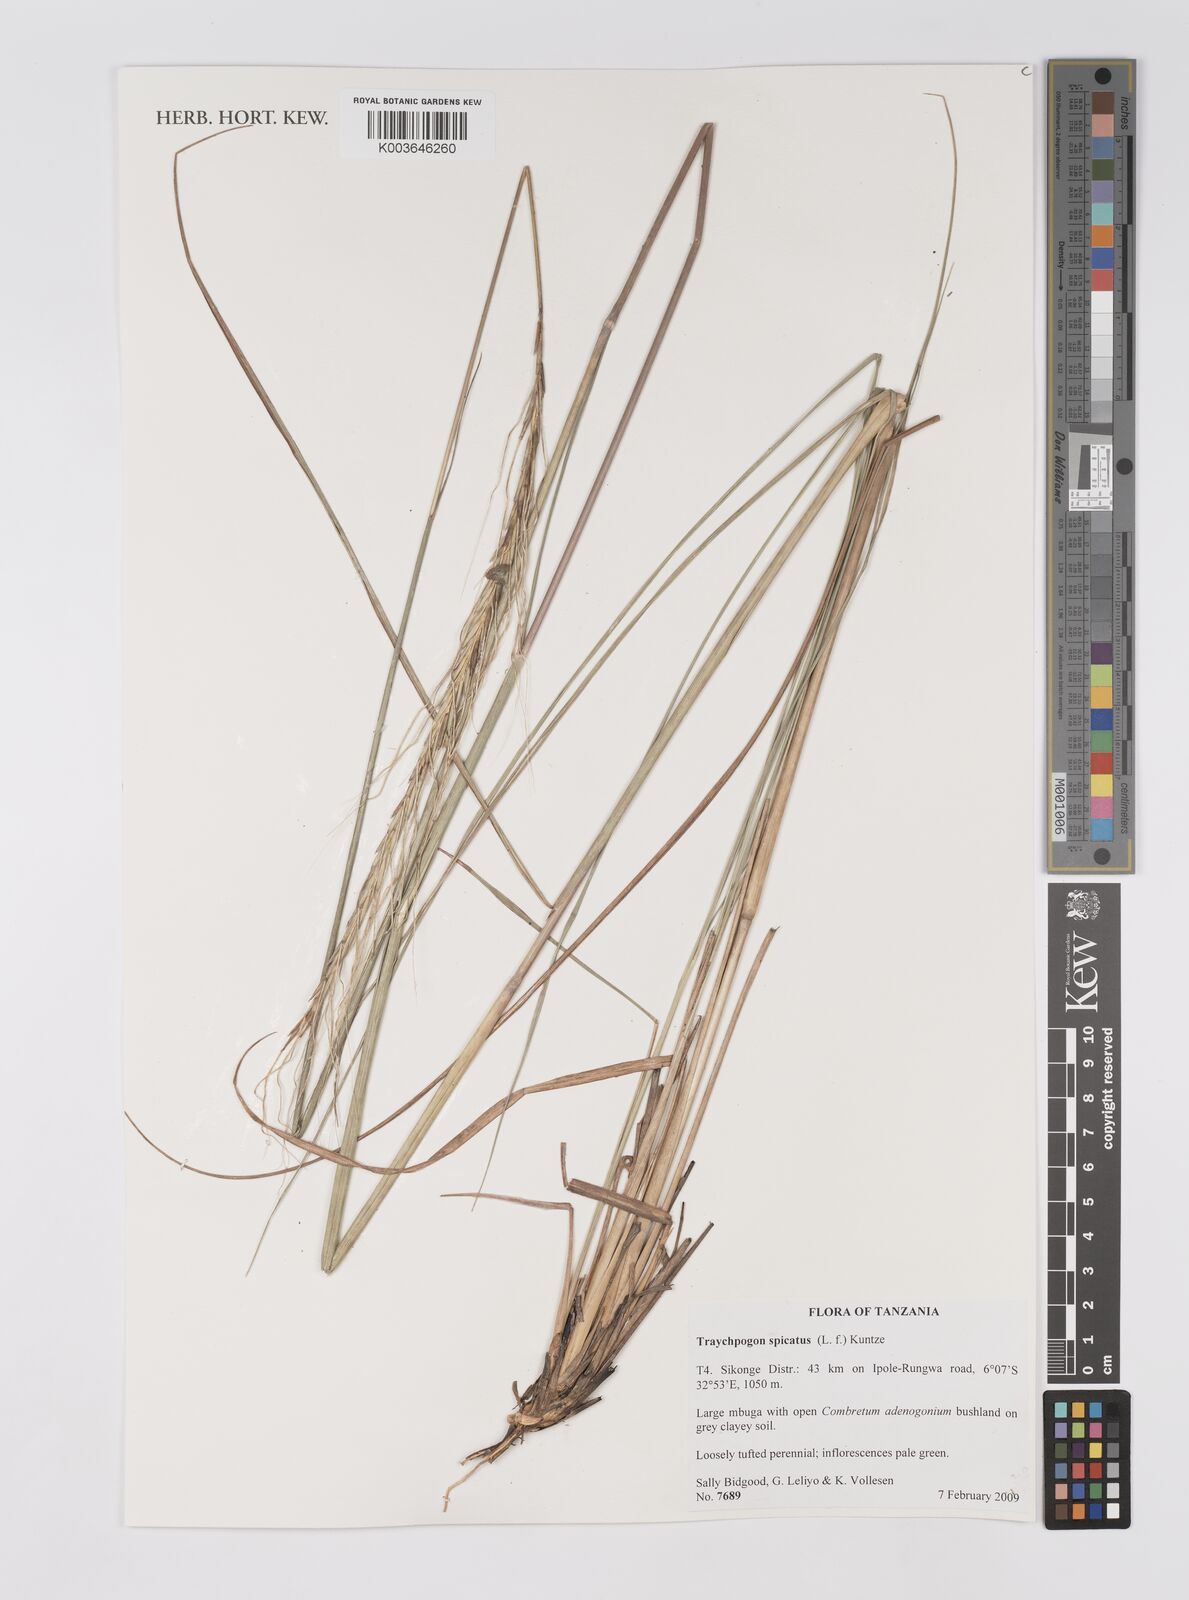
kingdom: Plantae
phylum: Tracheophyta
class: Liliopsida
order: Poales
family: Poaceae
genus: Trachypogon
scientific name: Trachypogon spicatus
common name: Crinkle-awn
